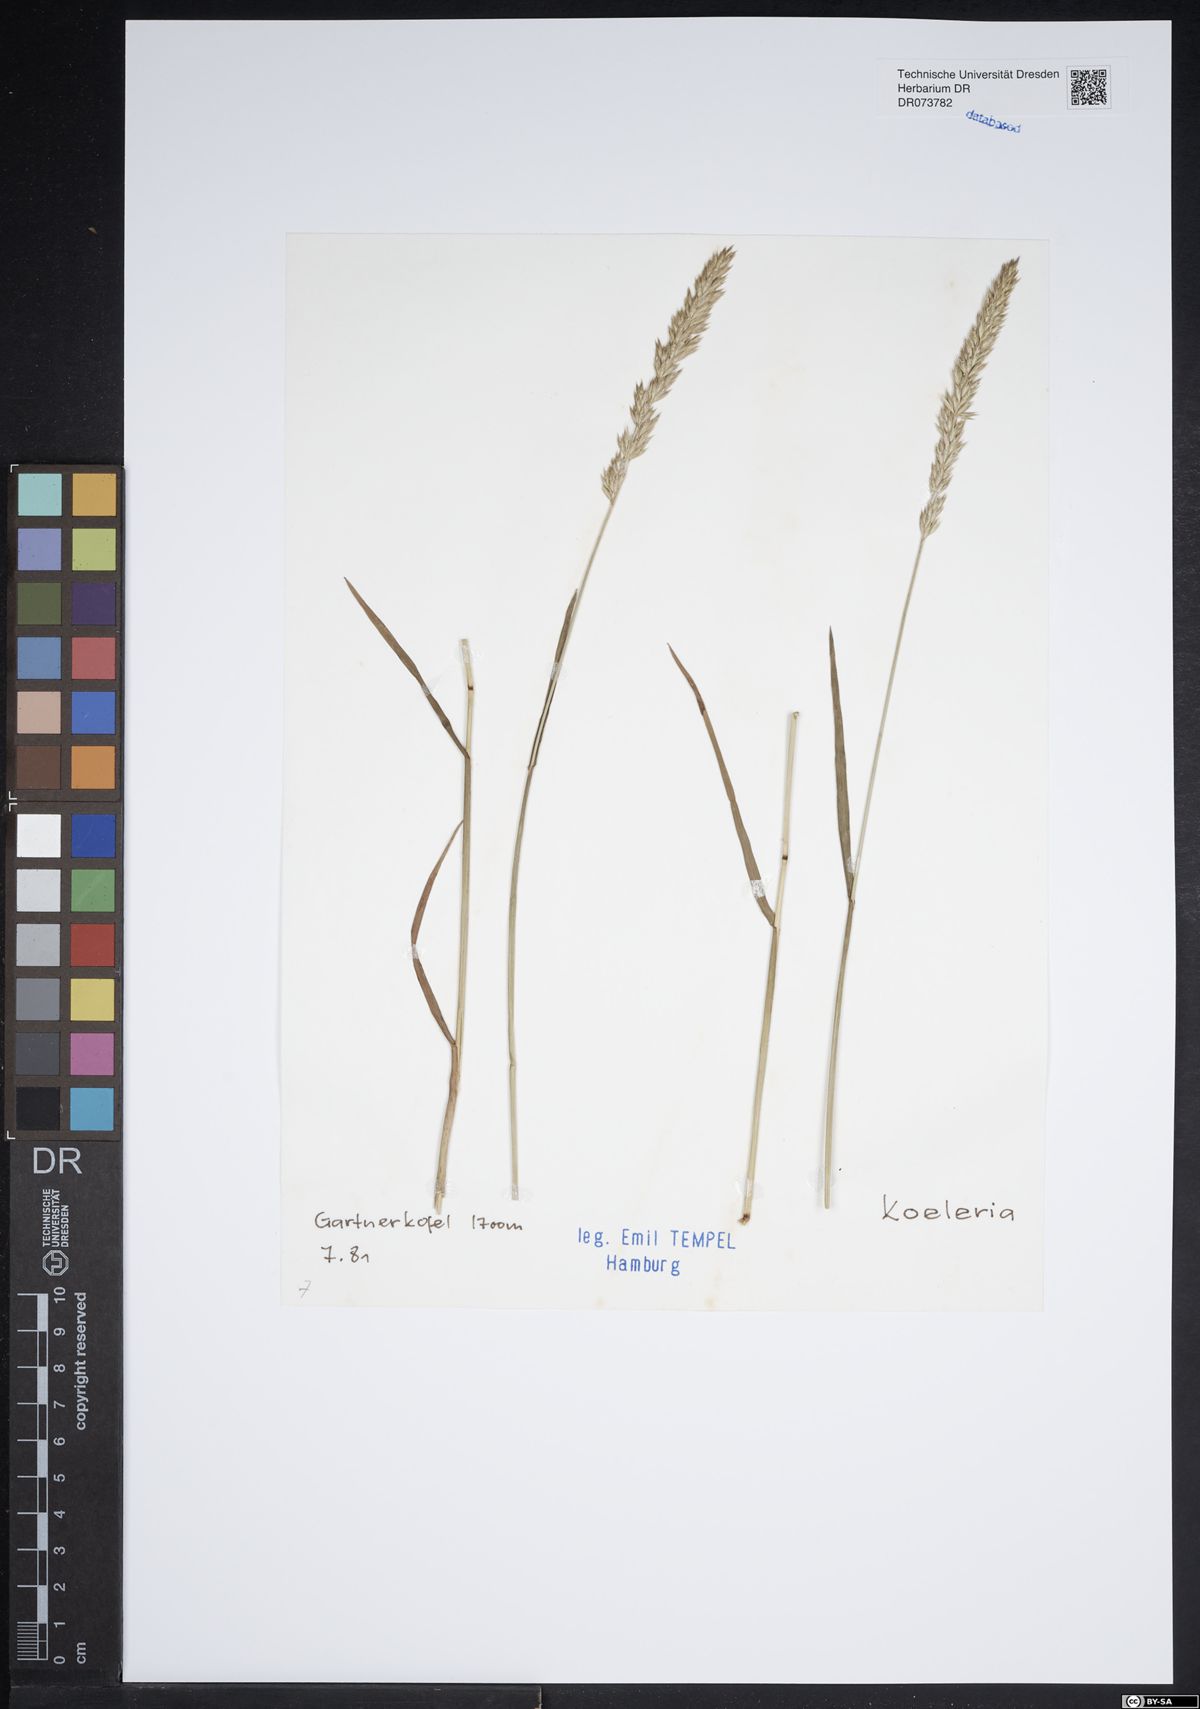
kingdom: Plantae
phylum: Tracheophyta
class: Liliopsida
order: Poales
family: Poaceae
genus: Koeleria
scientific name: Koeleria
